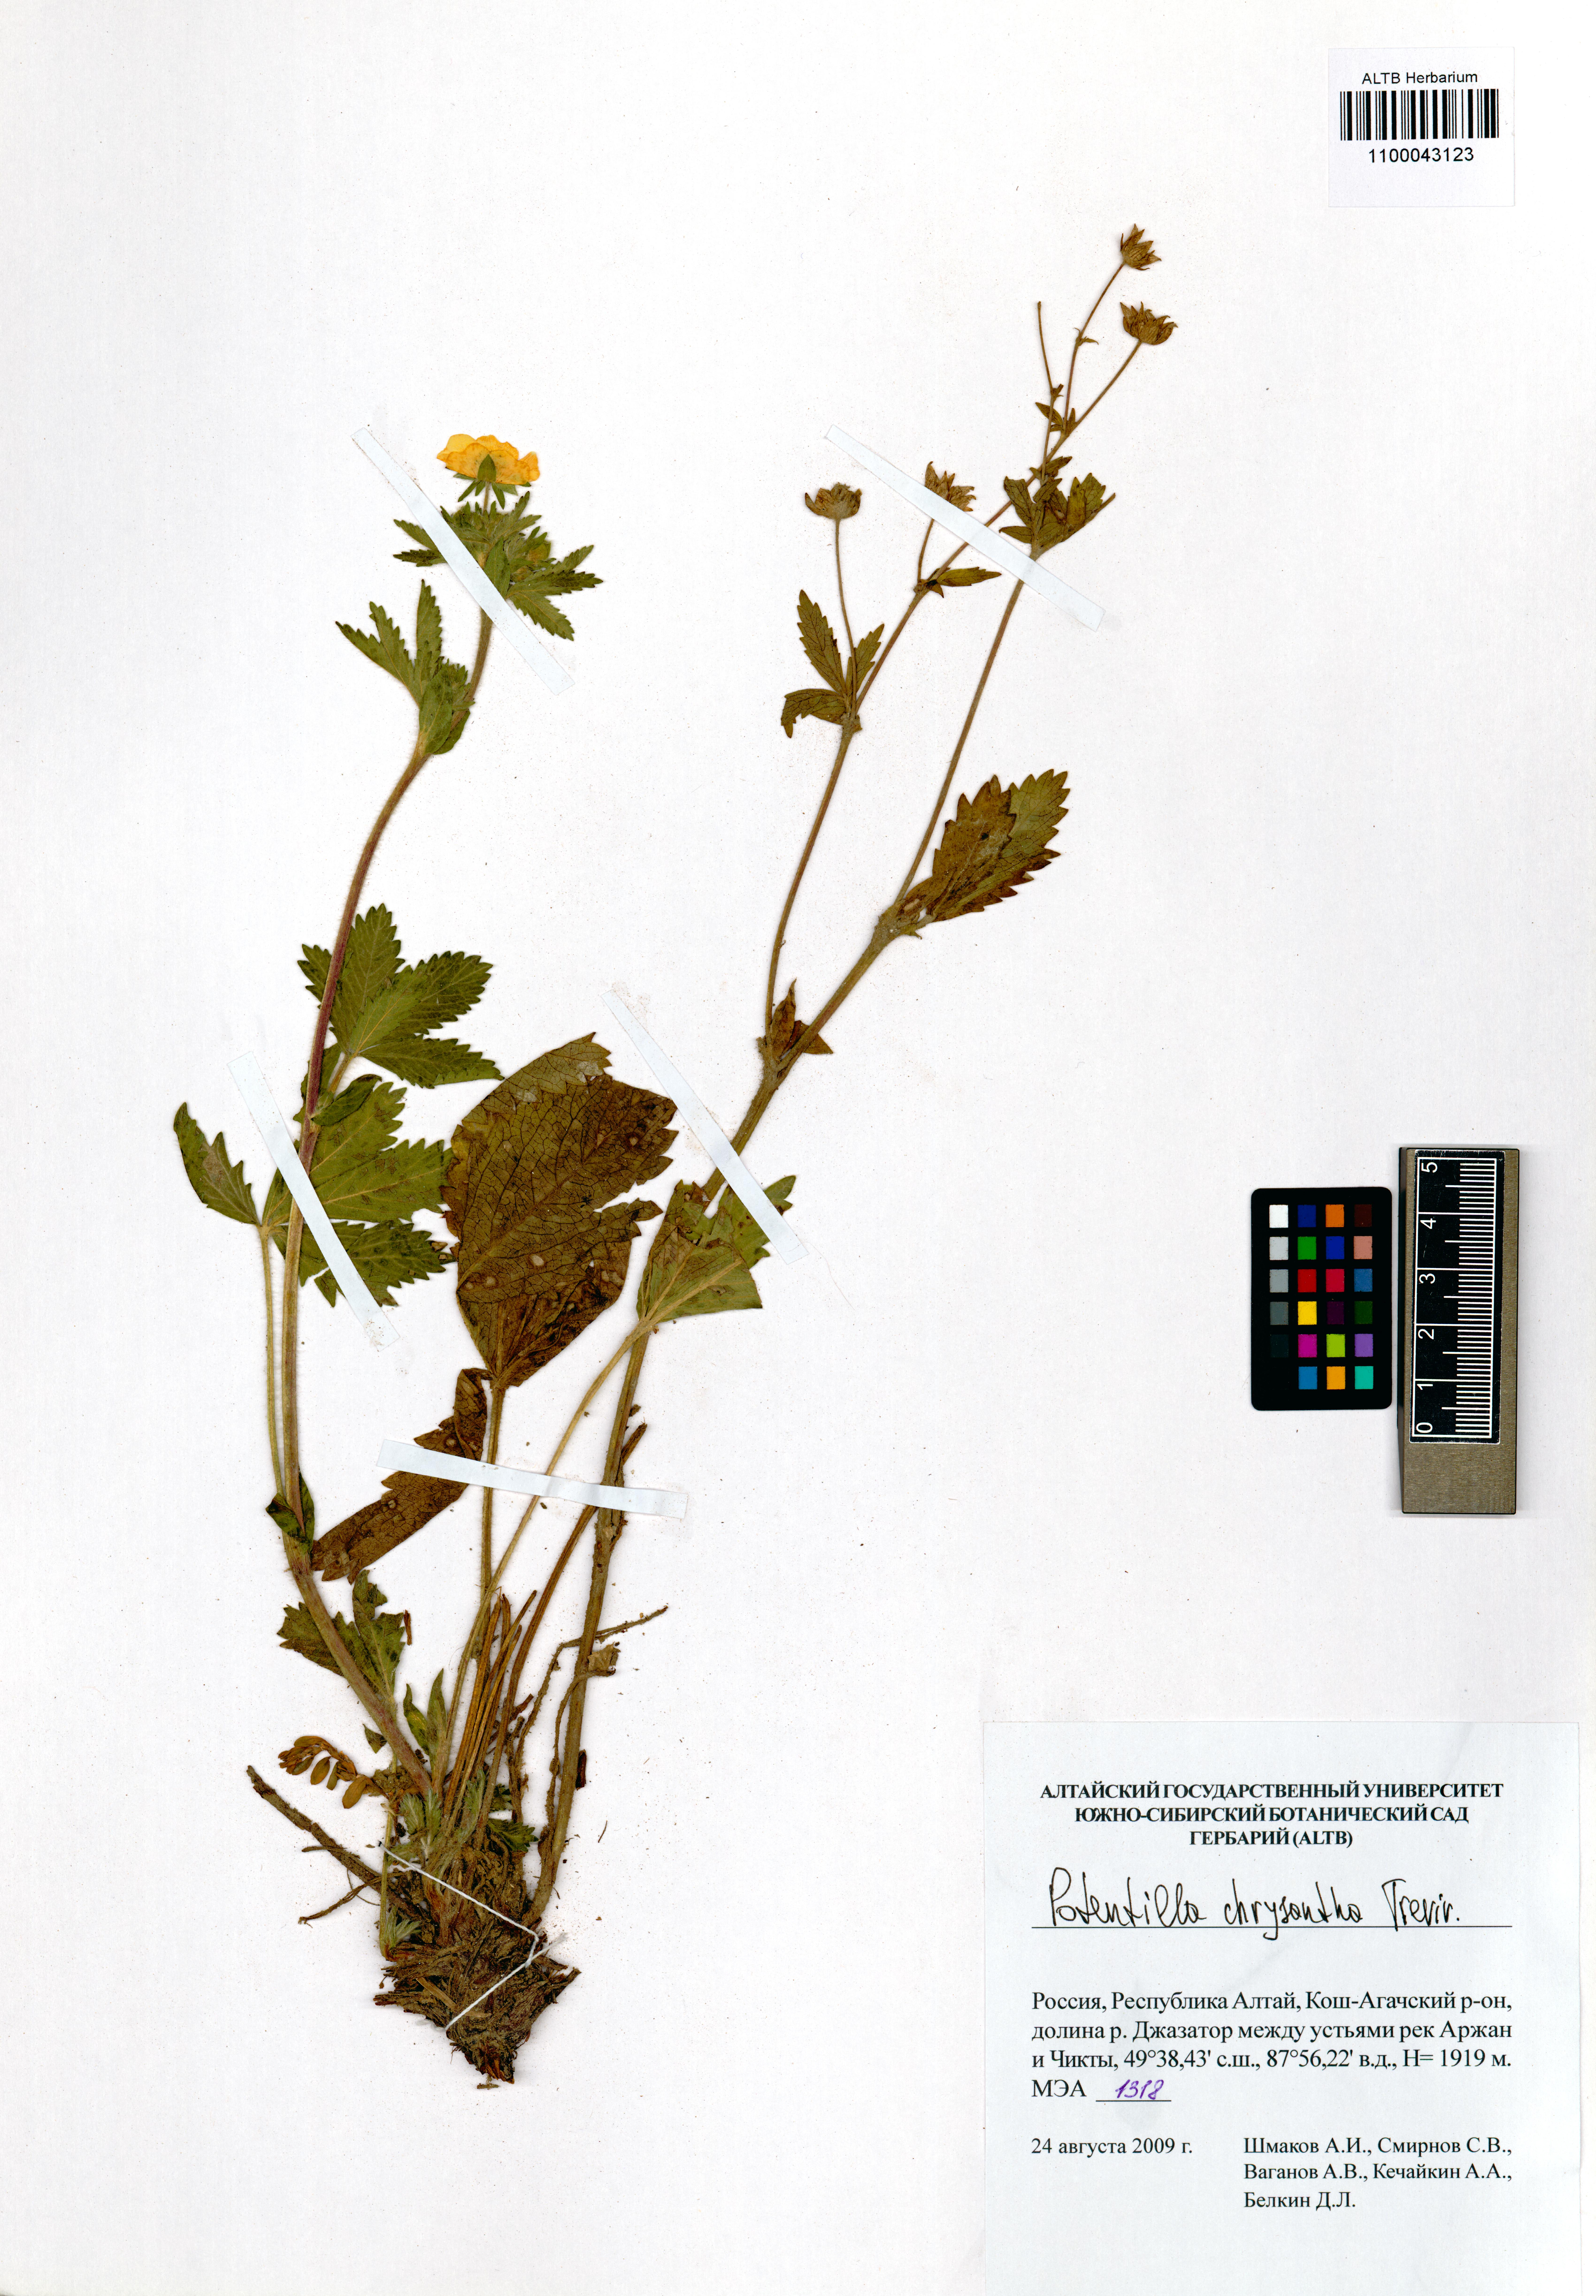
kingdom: Plantae
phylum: Tracheophyta
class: Magnoliopsida
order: Rosales
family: Rosaceae
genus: Potentilla
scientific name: Potentilla chrysantha
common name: Thuringian cinquefoil
